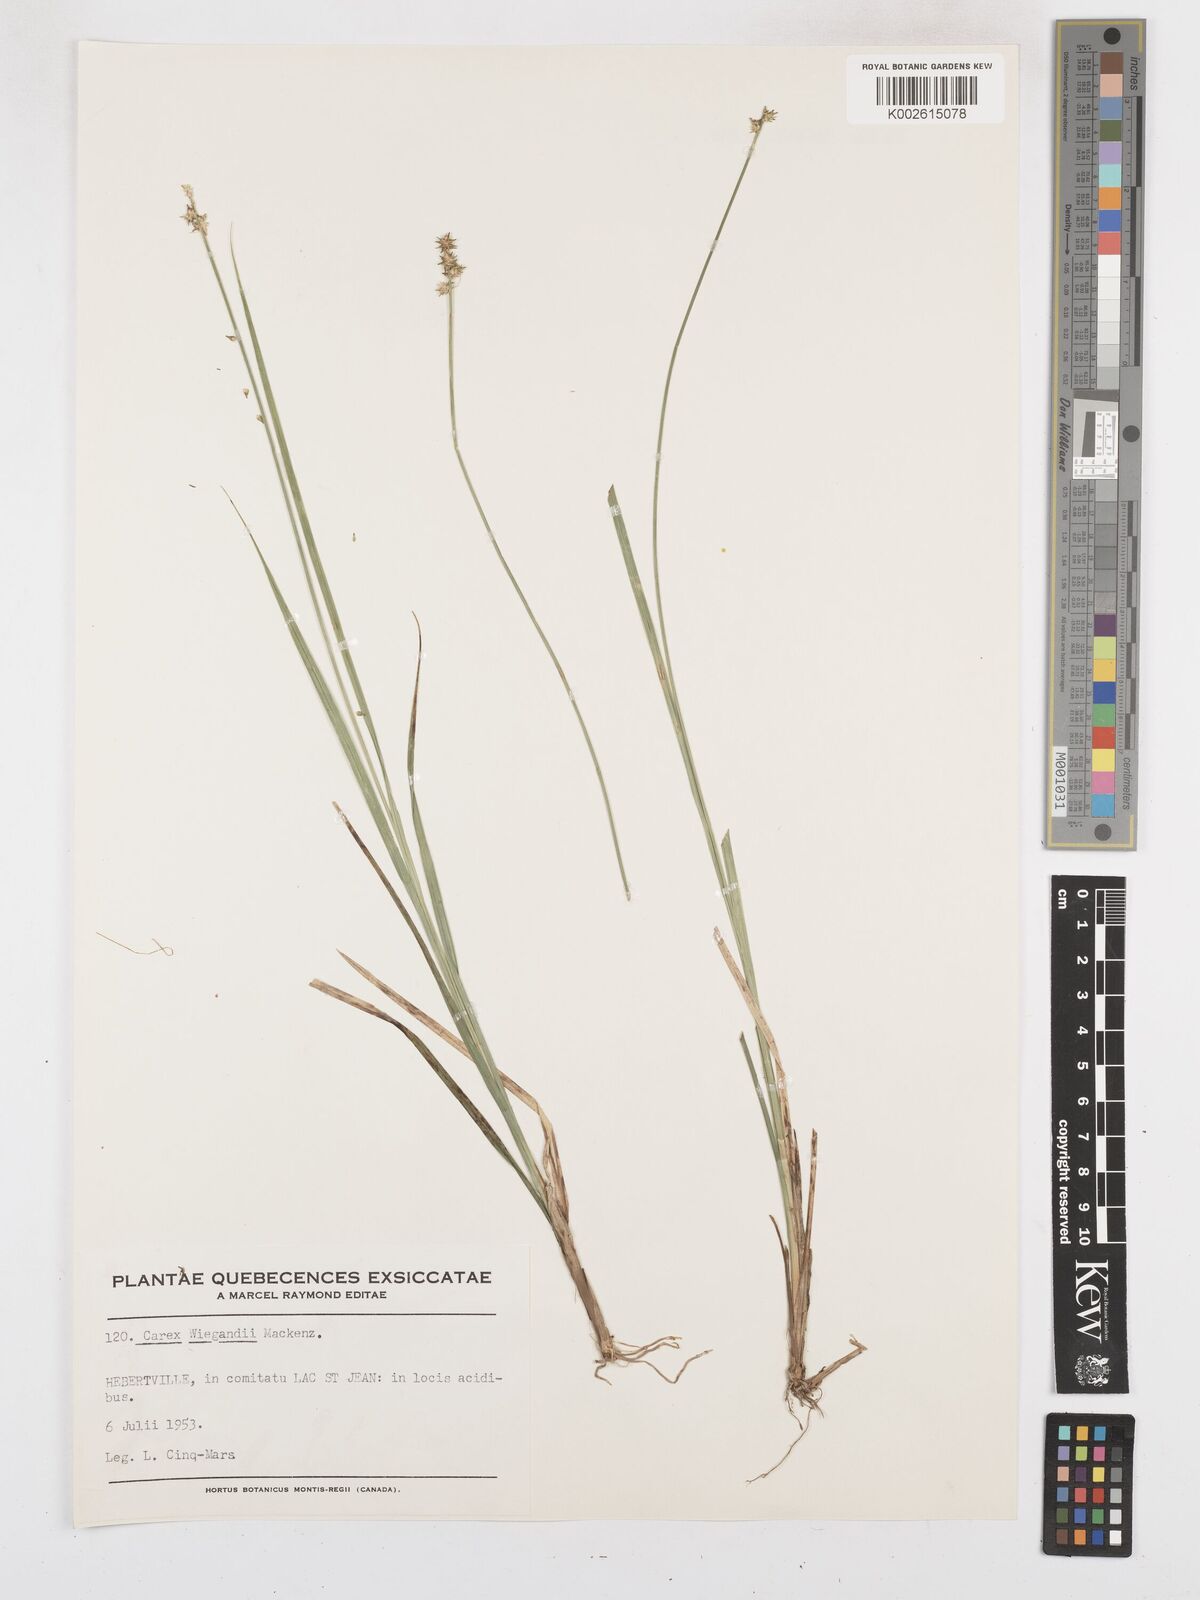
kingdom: Plantae
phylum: Tracheophyta
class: Liliopsida
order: Poales
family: Cyperaceae
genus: Carex
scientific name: Carex wiegandii
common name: Wiegand's sedge
